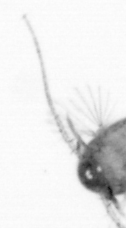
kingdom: Animalia
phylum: Arthropoda
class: Copepoda
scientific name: Copepoda
